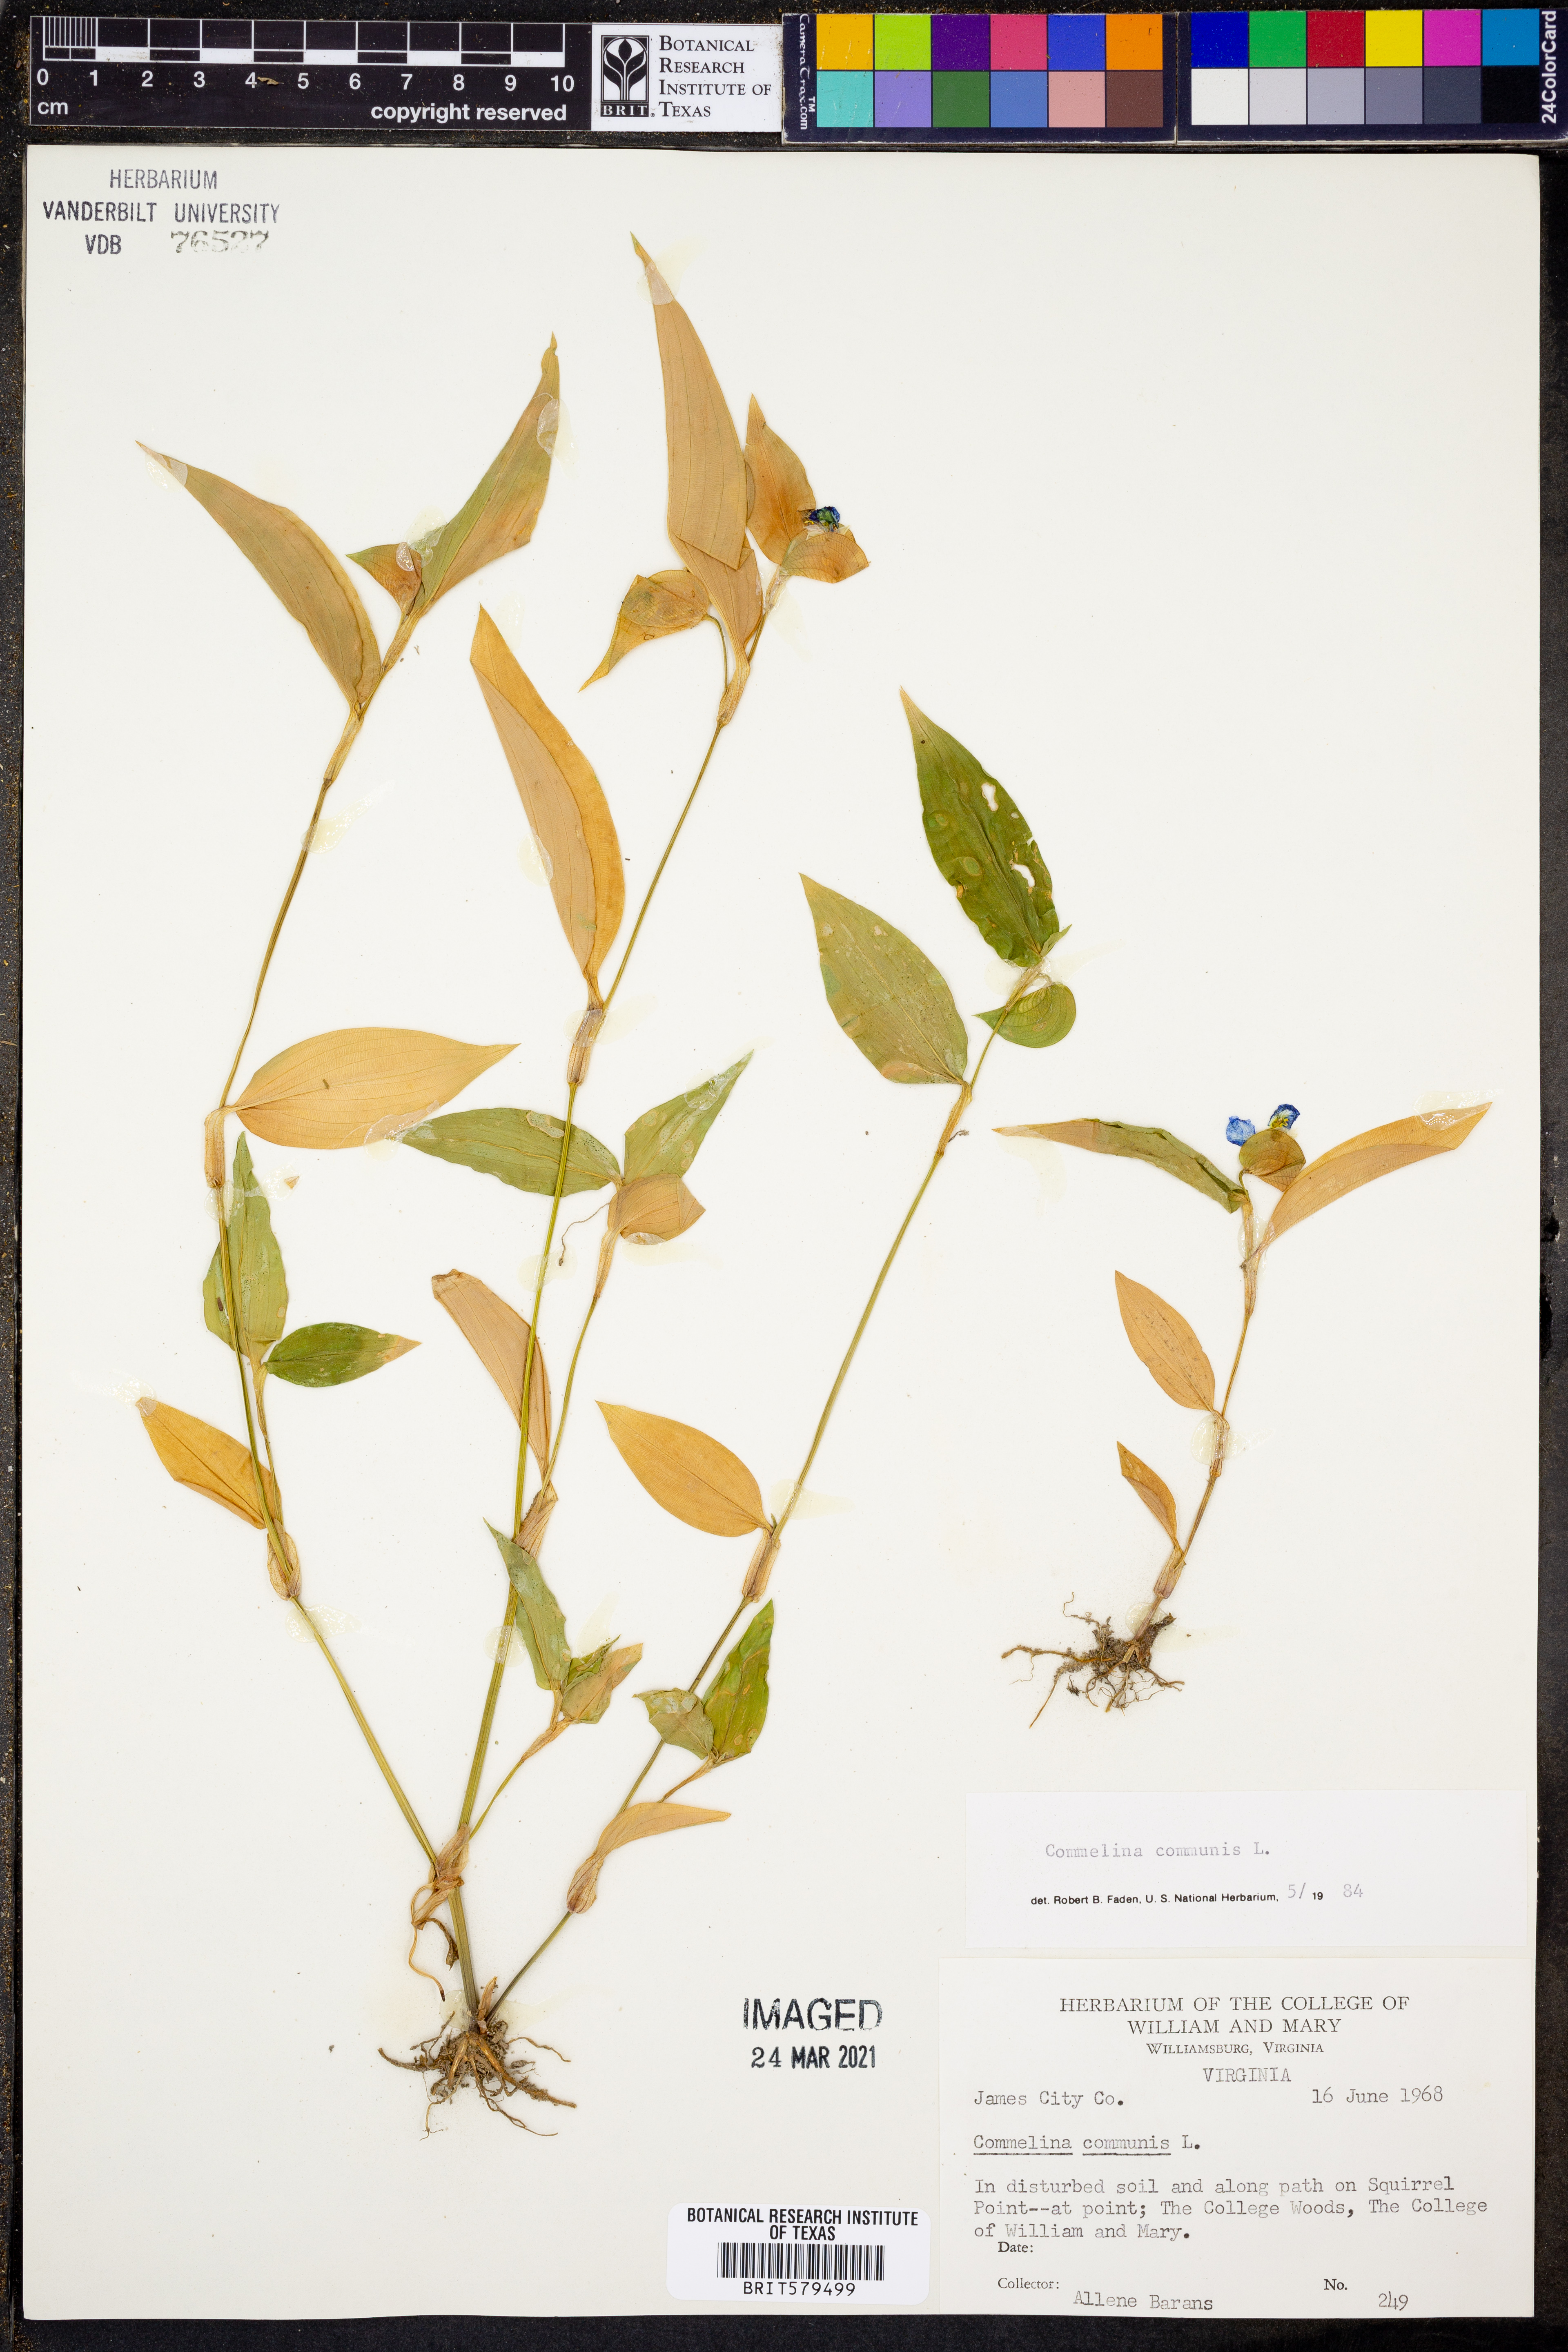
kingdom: Plantae
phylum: Tracheophyta
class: Liliopsida
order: Commelinales
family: Commelinaceae
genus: Commelina
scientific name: Commelina communis
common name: Asiatic dayflower
